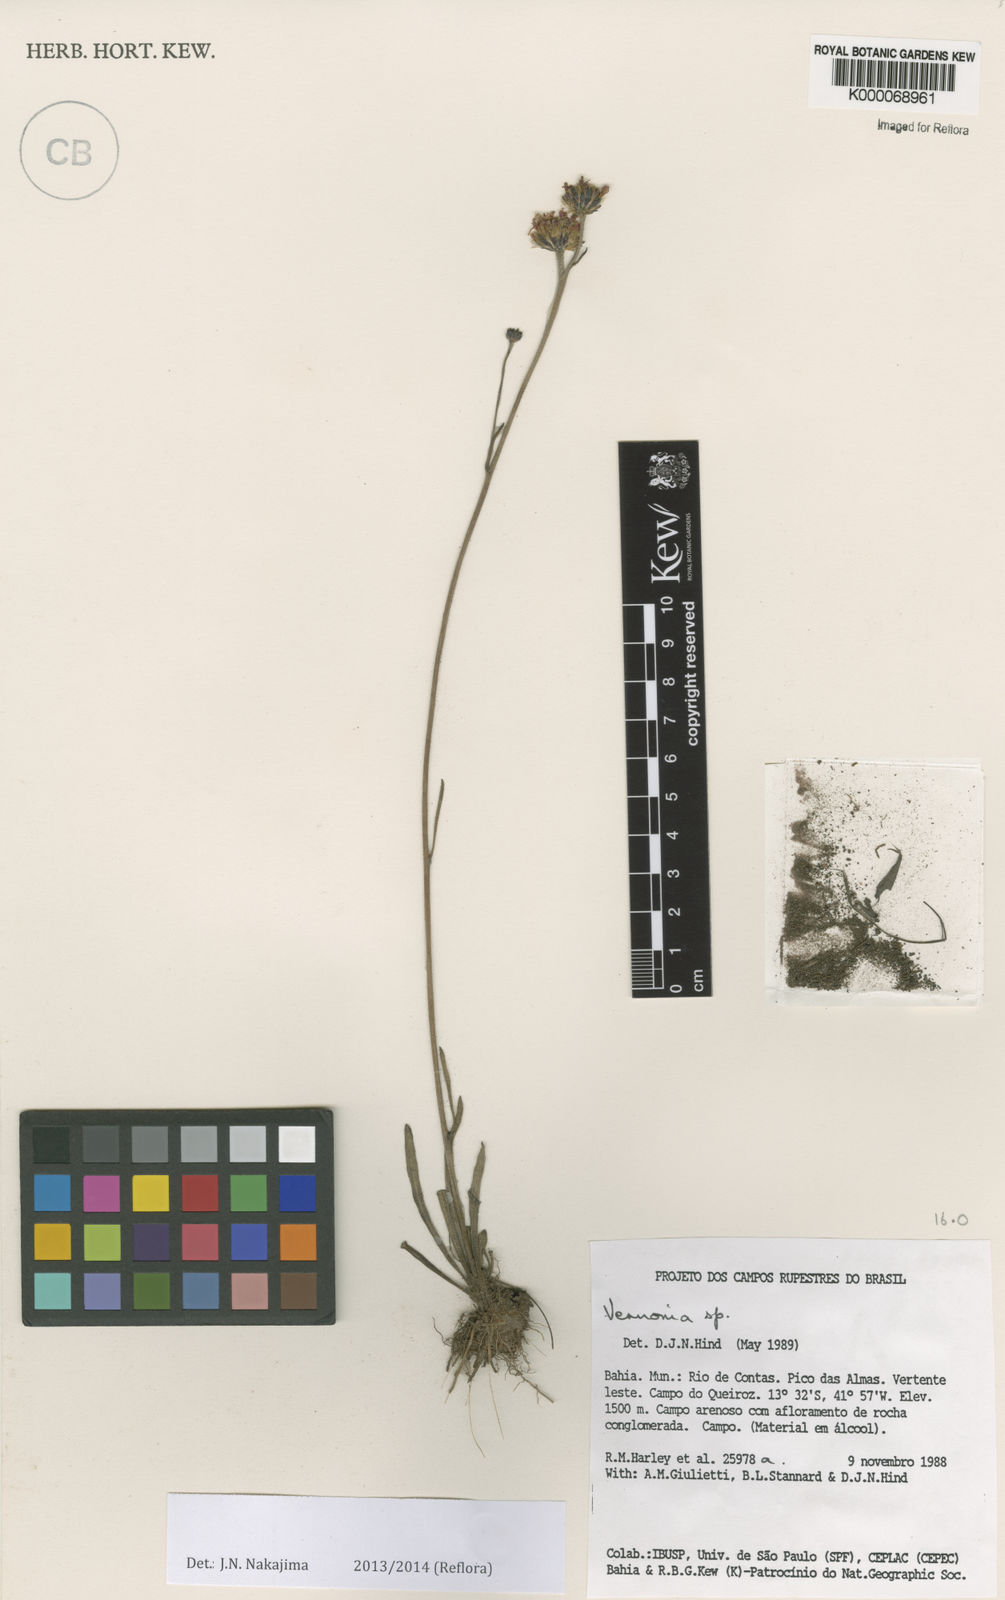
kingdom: Plantae
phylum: Tracheophyta
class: Magnoliopsida
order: Asterales
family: Asteraceae
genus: Vernonia
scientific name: Vernonia
